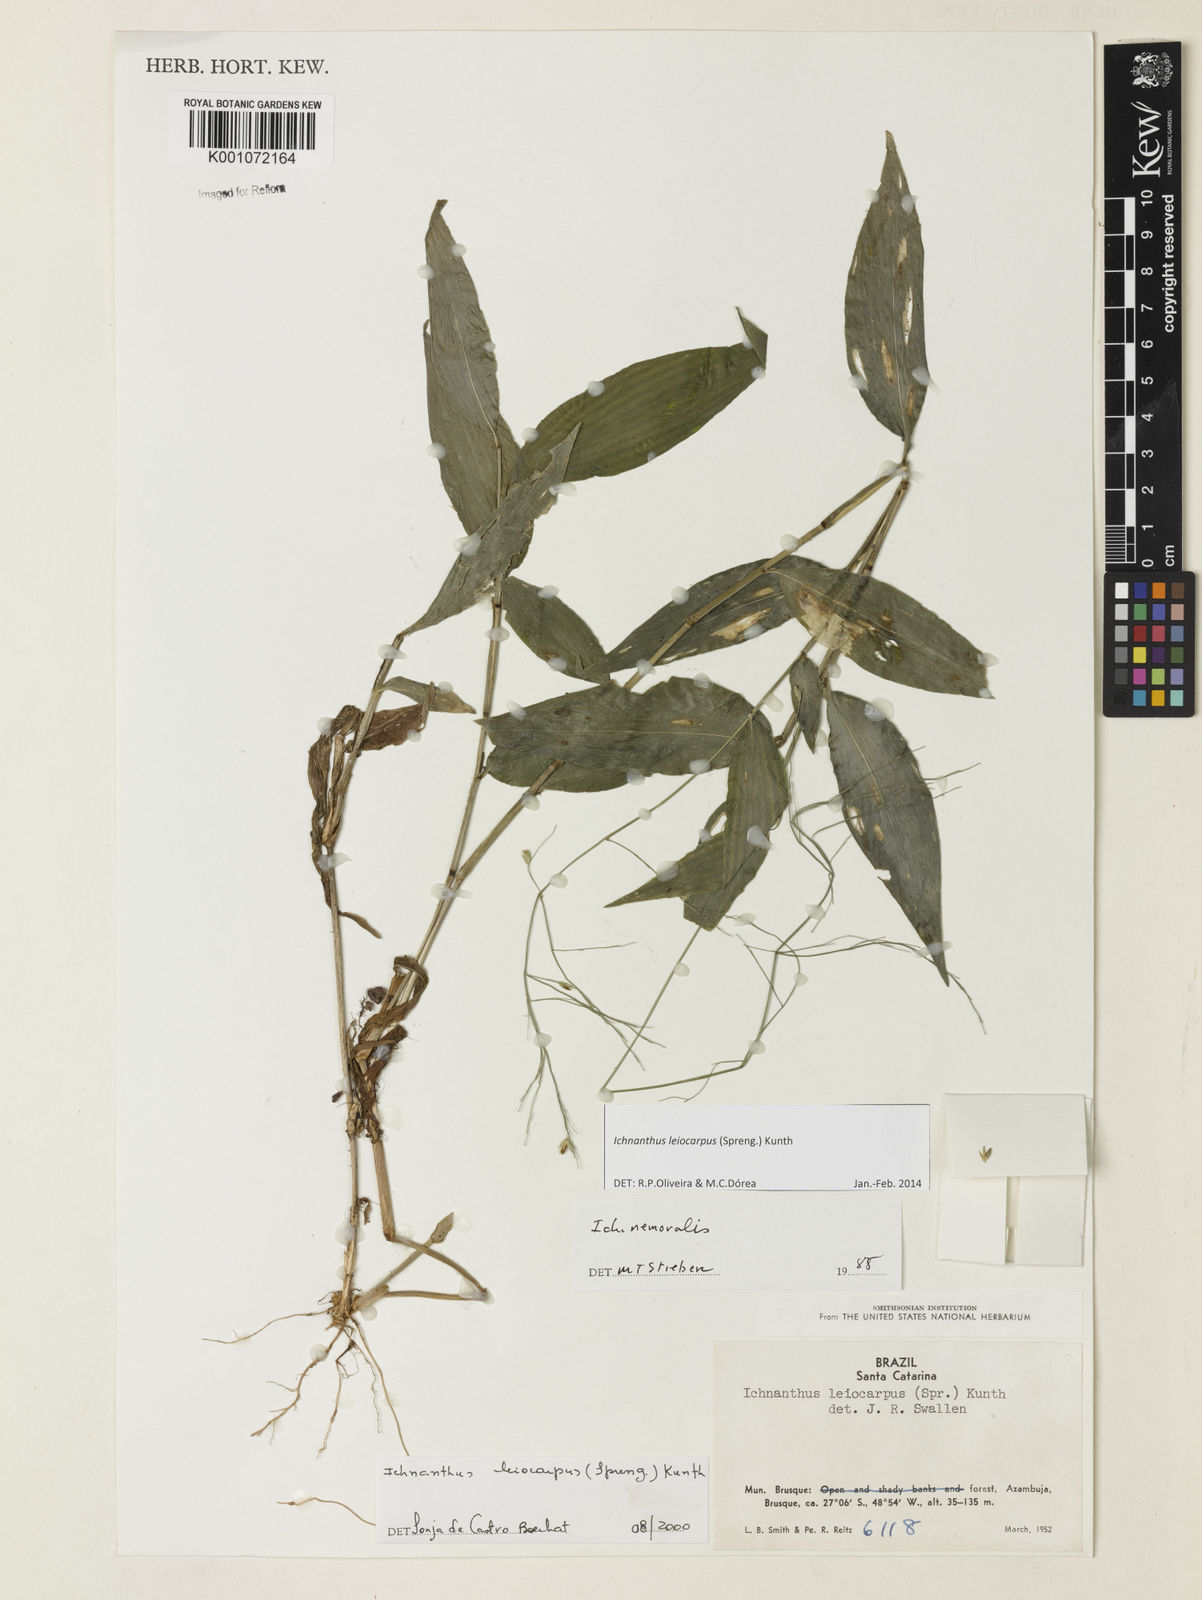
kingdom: Plantae
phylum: Tracheophyta
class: Liliopsida
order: Poales
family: Poaceae
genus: Ichnanthus
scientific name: Ichnanthus leiocarpus
